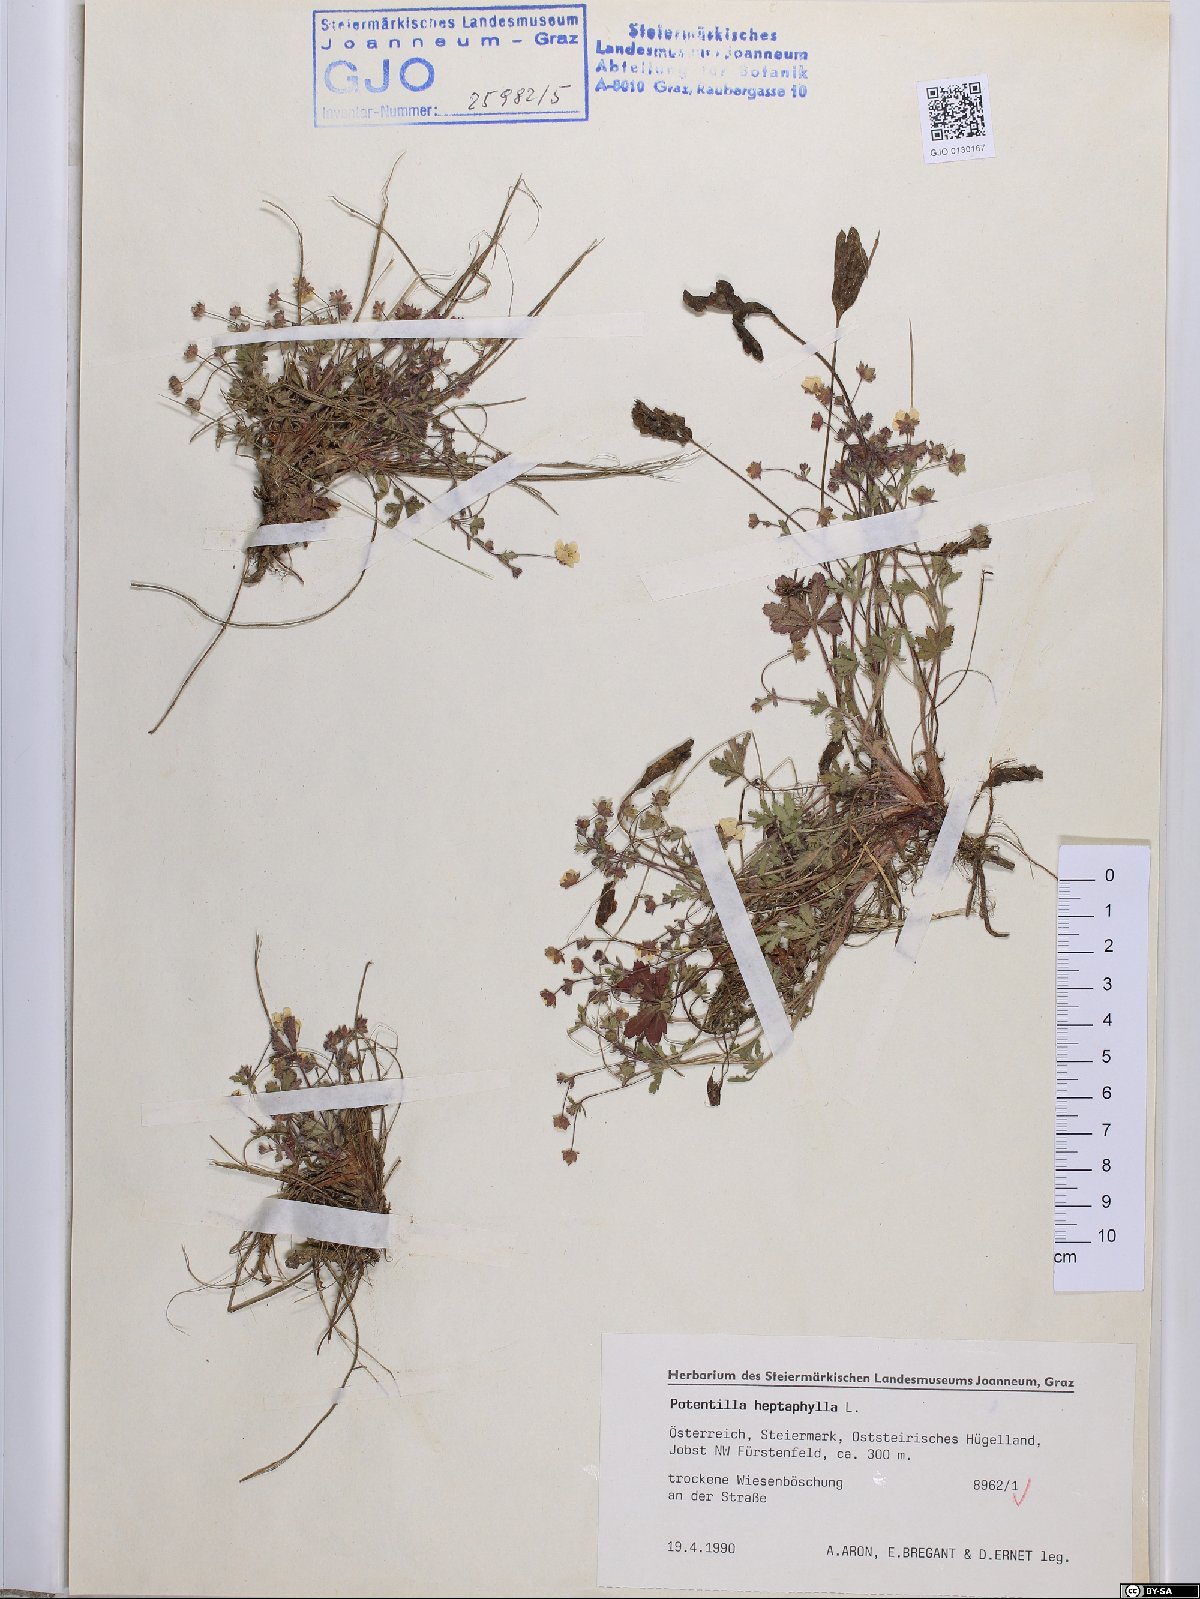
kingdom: Plantae
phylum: Tracheophyta
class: Magnoliopsida
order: Rosales
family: Rosaceae
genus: Potentilla
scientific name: Potentilla heptaphylla
